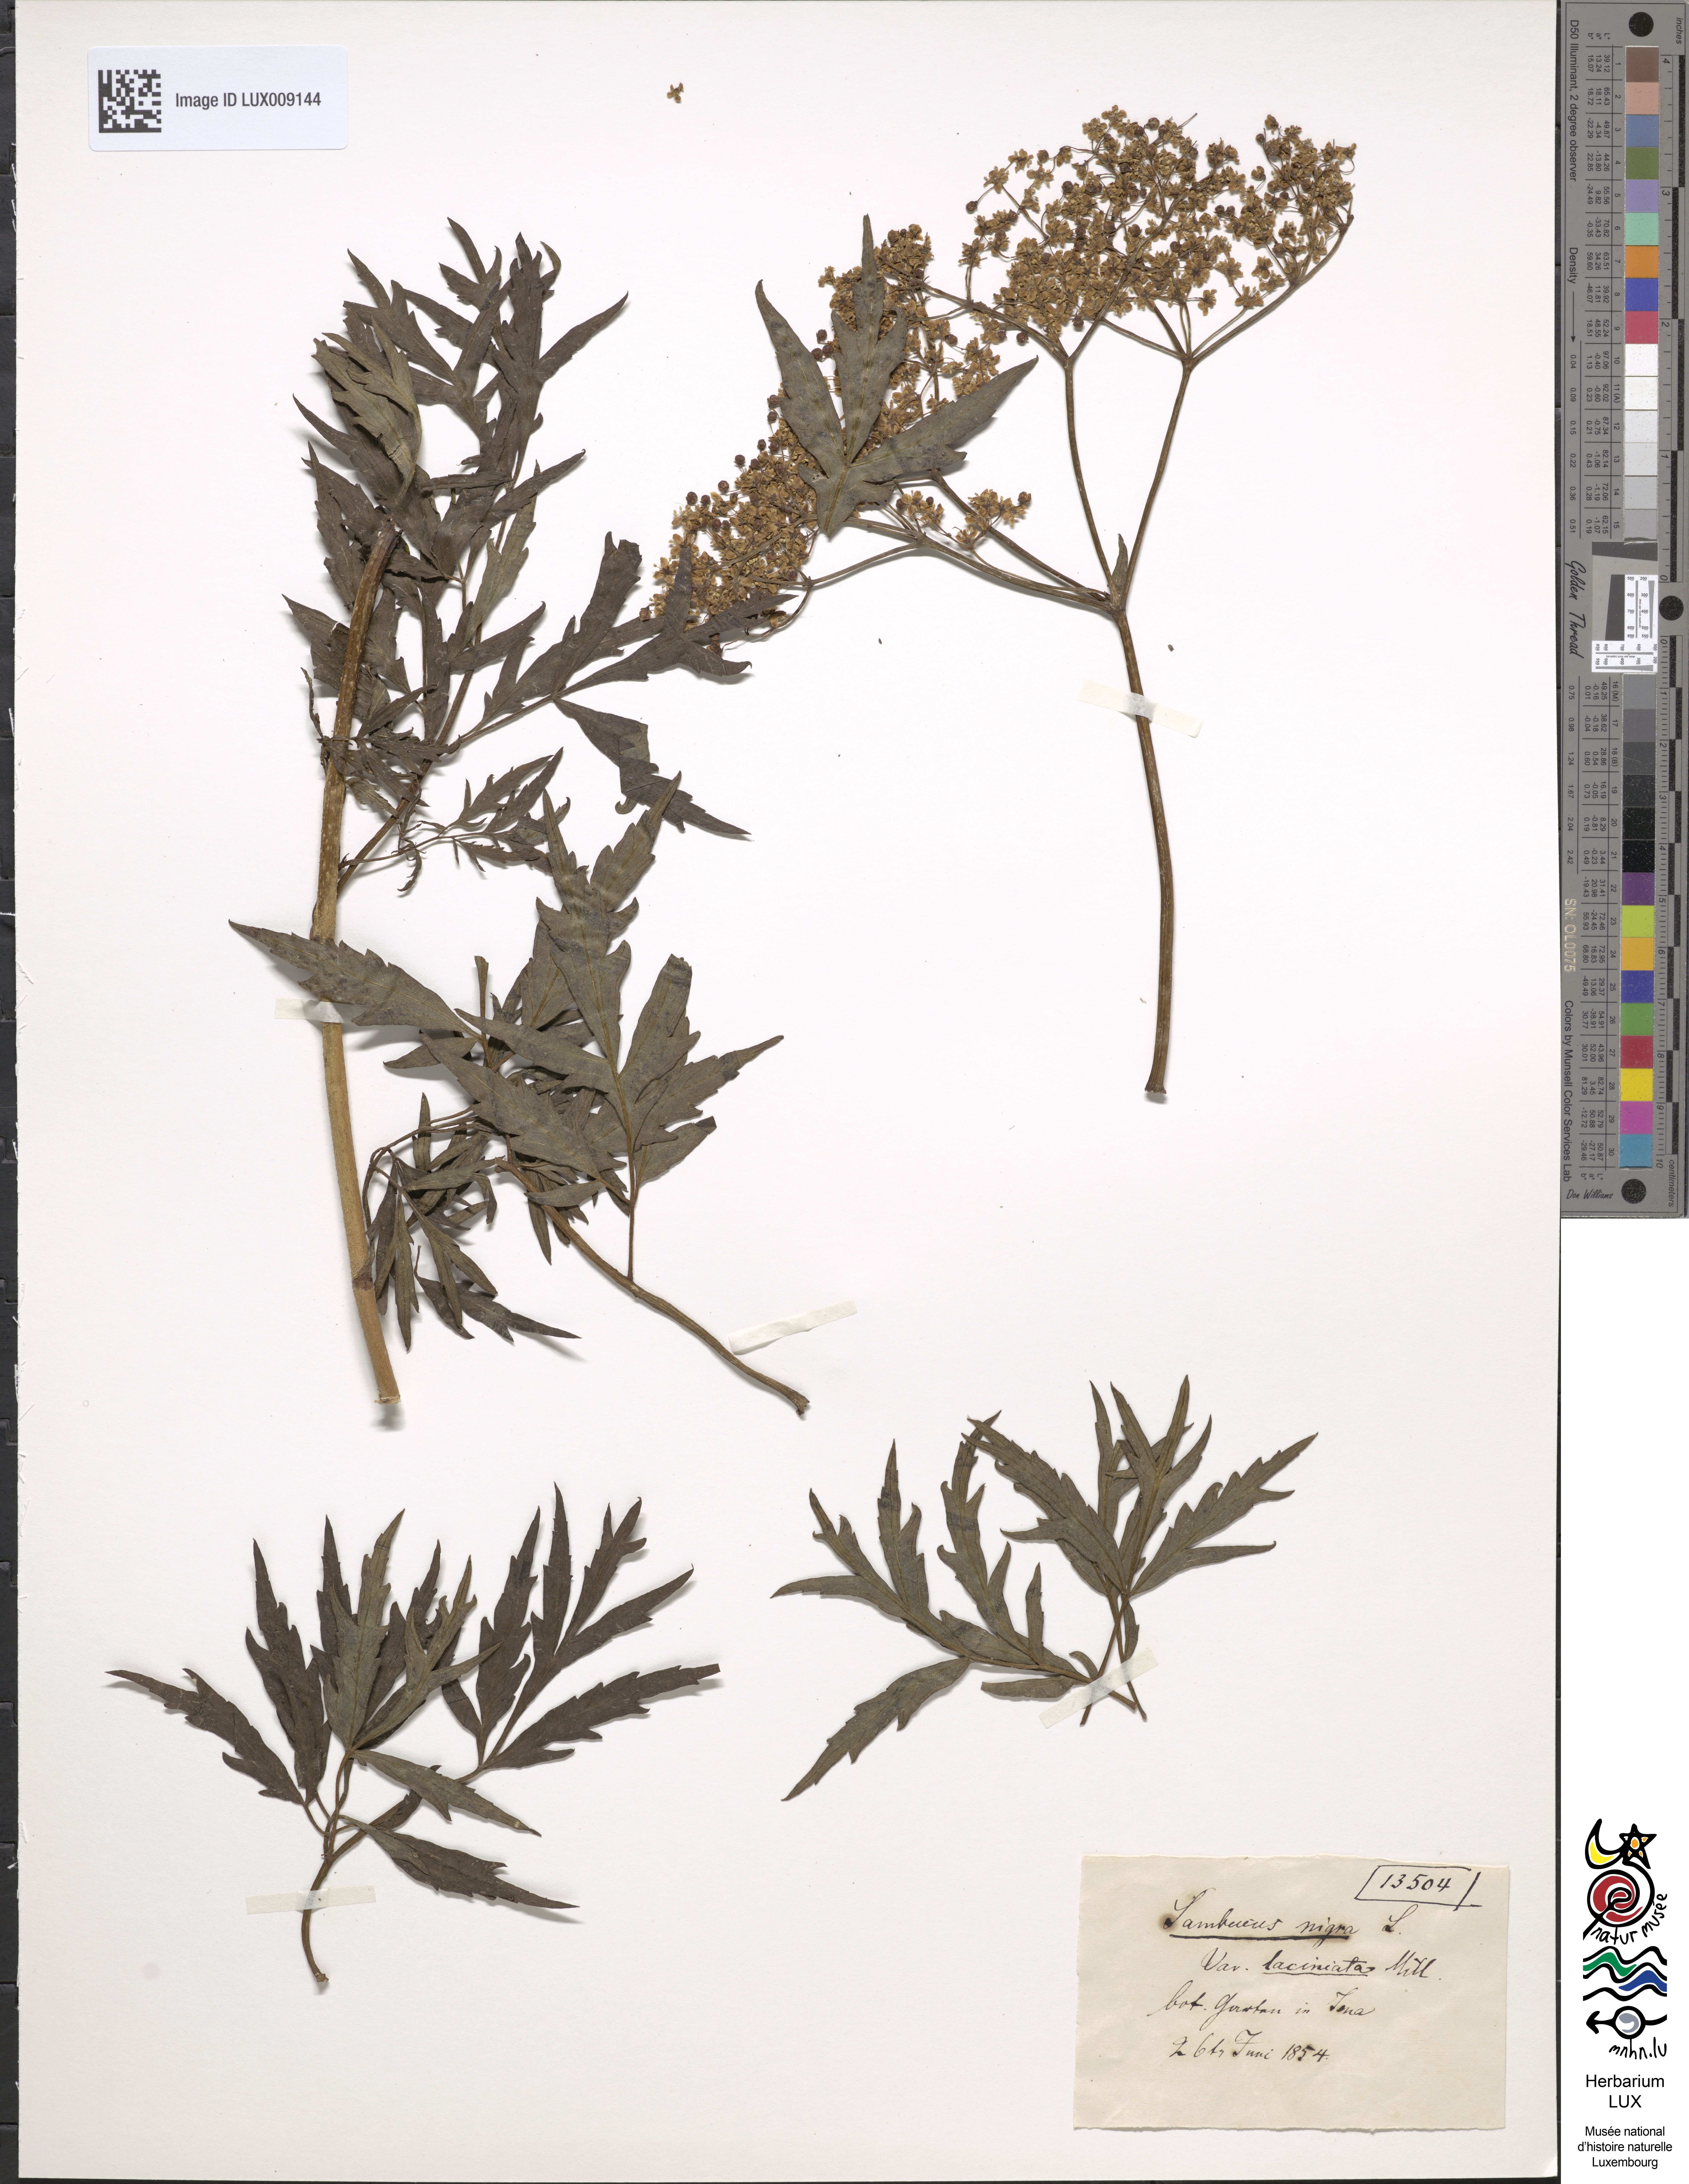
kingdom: Plantae
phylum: Tracheophyta
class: Magnoliopsida
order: Dipsacales
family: Viburnaceae
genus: Sambucus
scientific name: Sambucus nigra
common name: Elder
